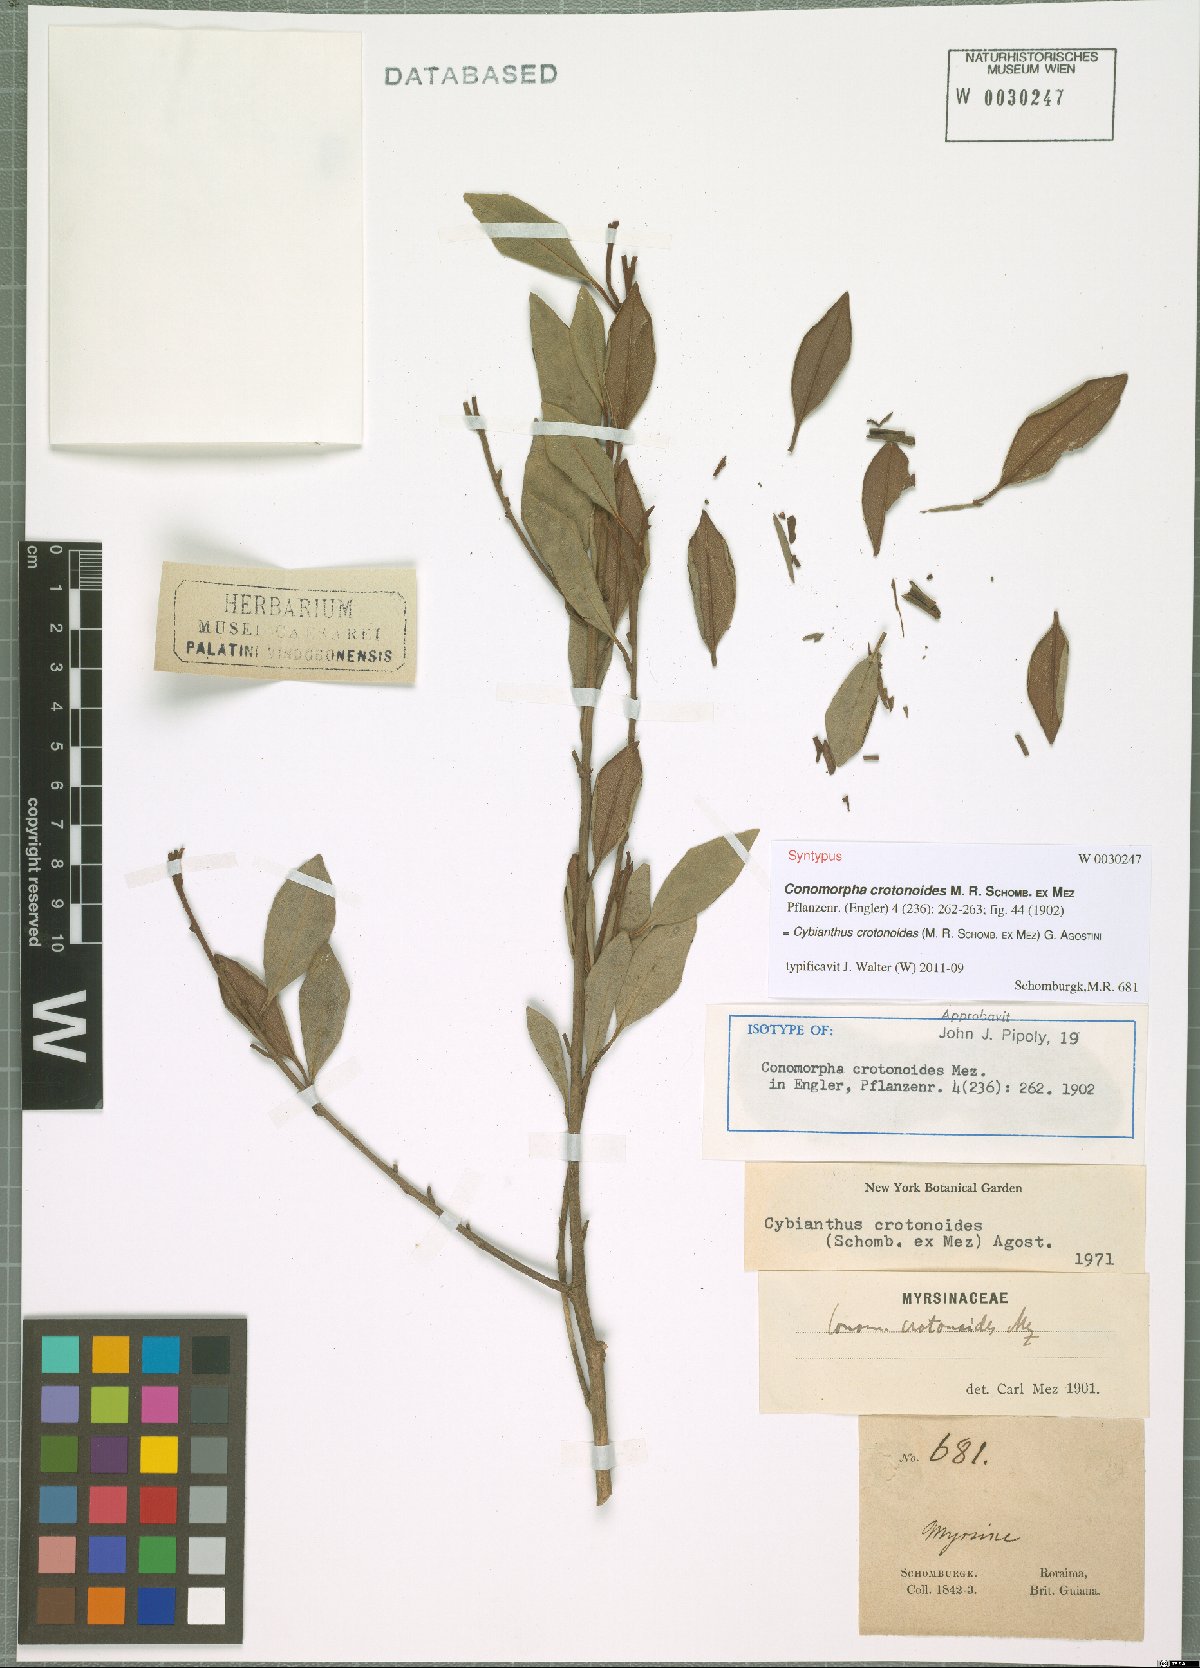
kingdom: Plantae
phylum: Tracheophyta
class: Magnoliopsida
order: Ericales
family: Primulaceae
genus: Cybianthus
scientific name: Cybianthus crotonoides
